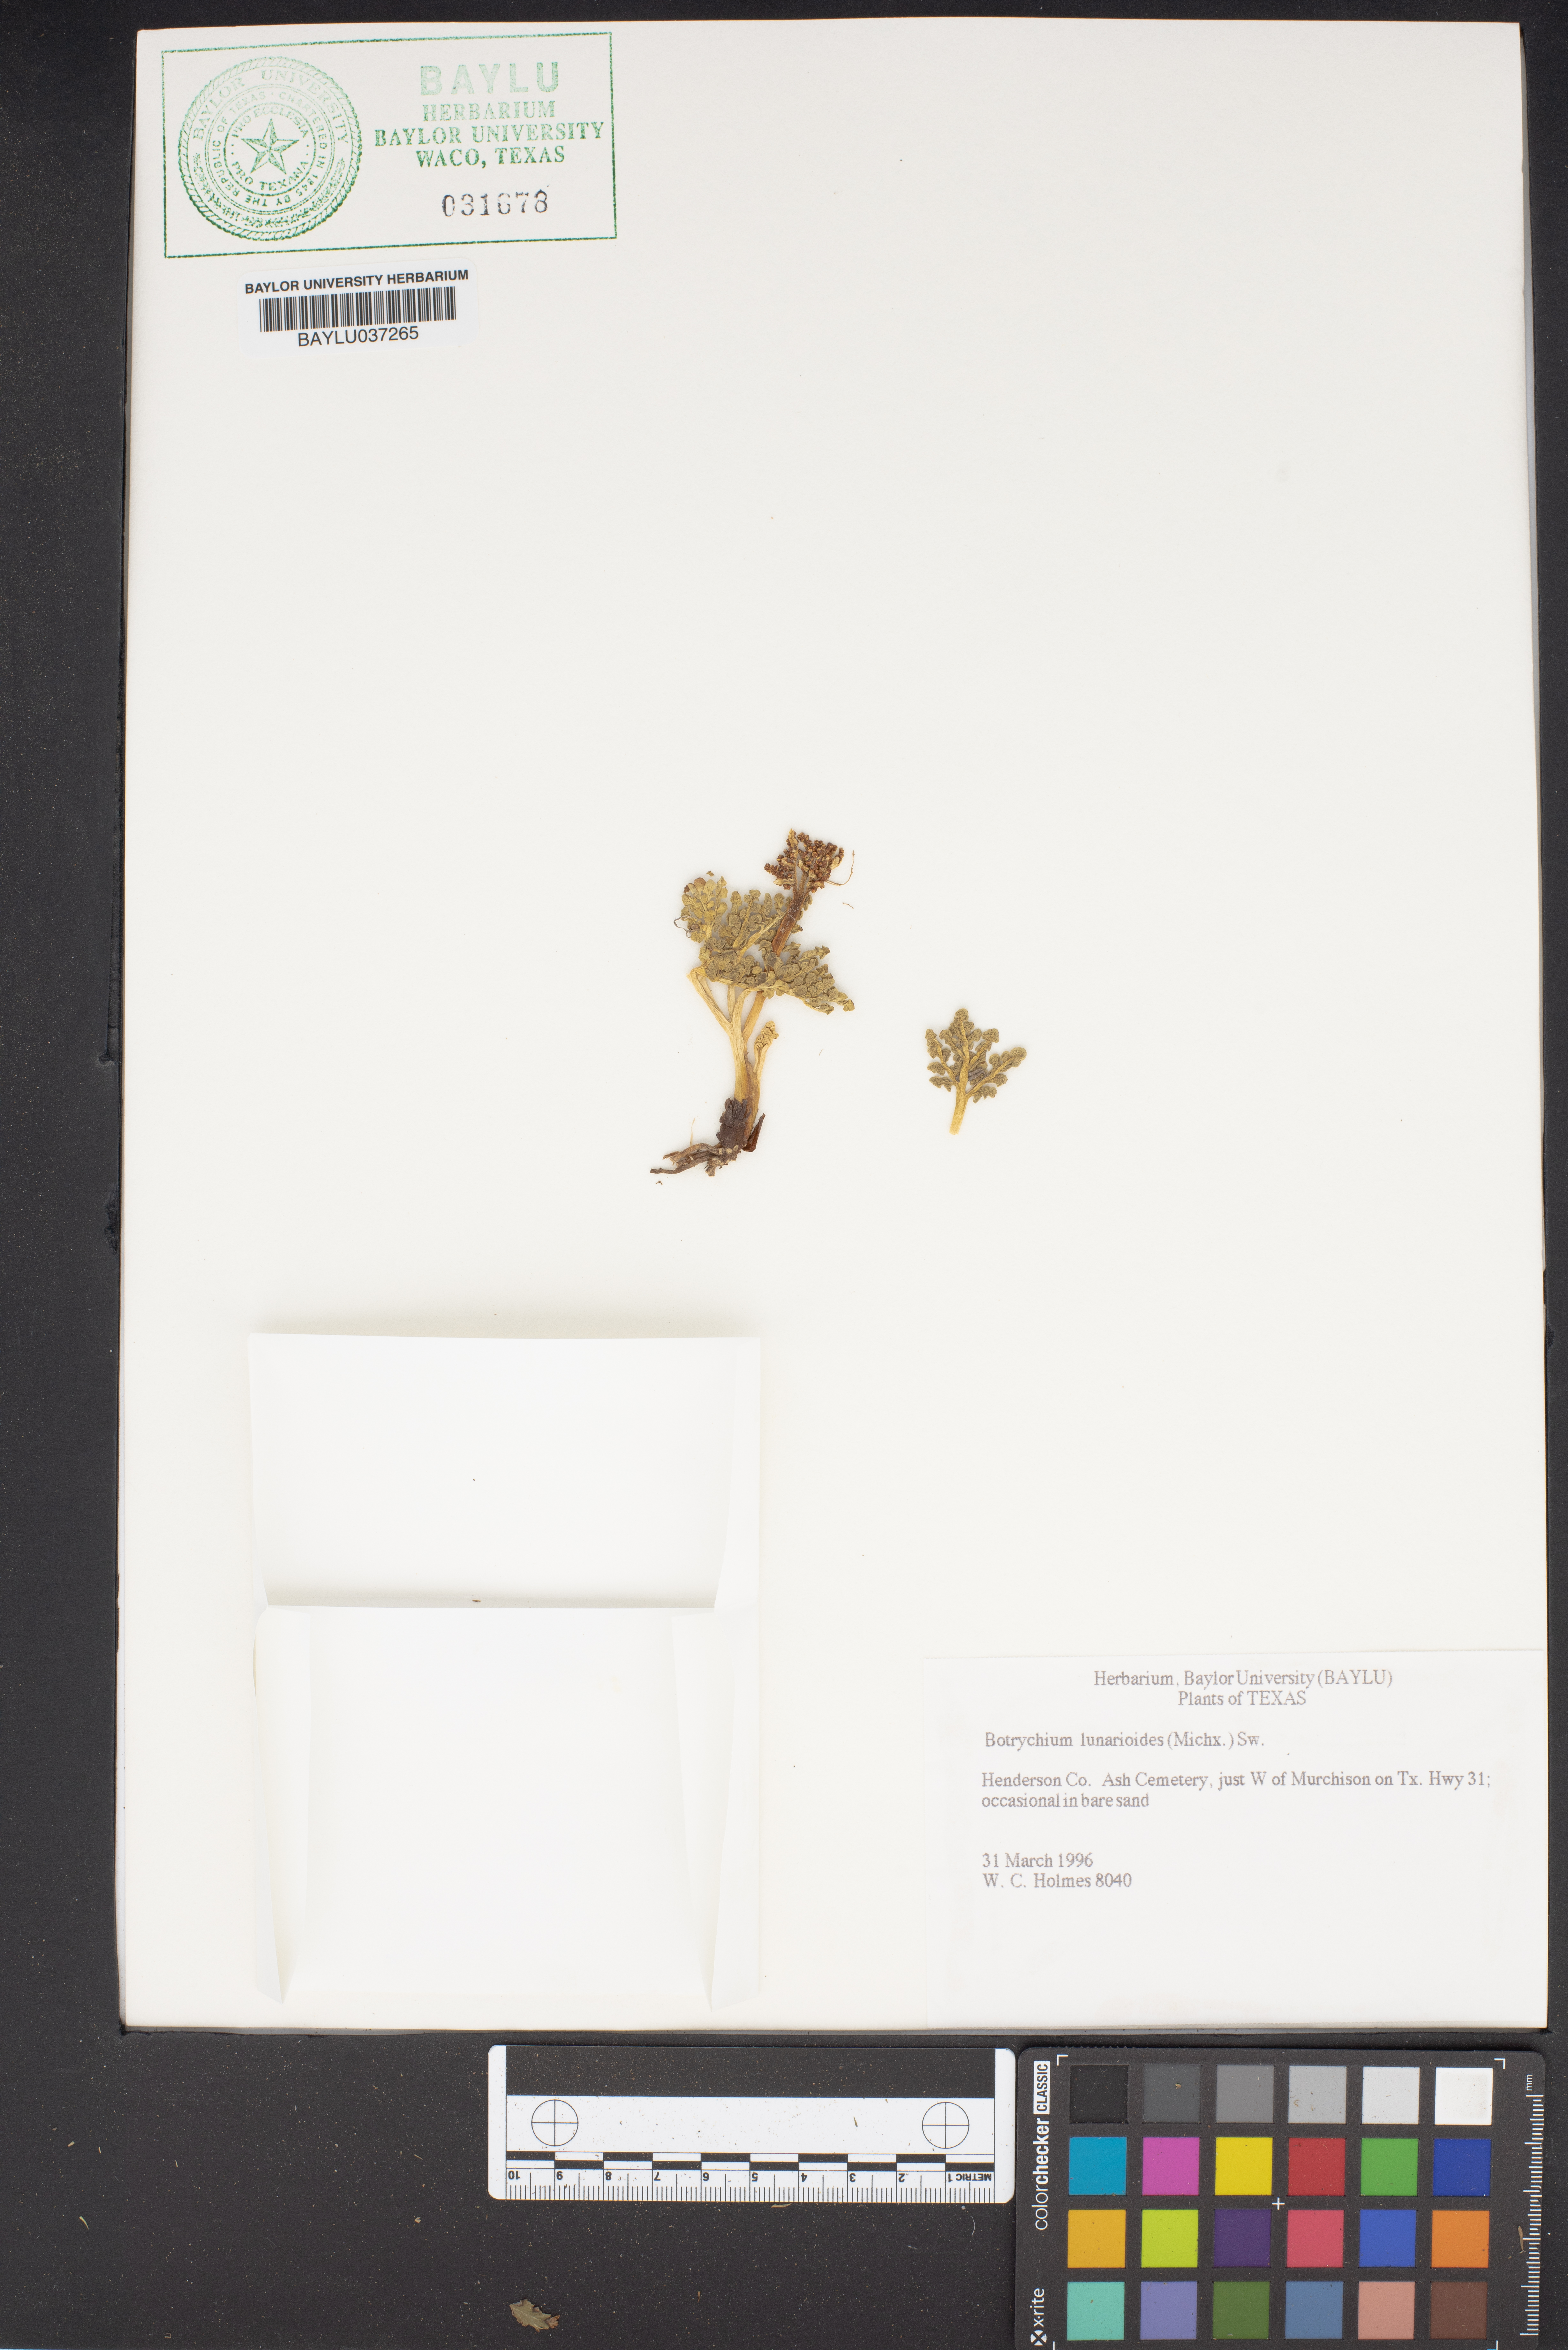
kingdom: Plantae
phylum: Tracheophyta
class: Polypodiopsida
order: Ophioglossales
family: Ophioglossaceae
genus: Sceptridium
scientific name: Sceptridium lunarioides
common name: Prostrate grapefern
